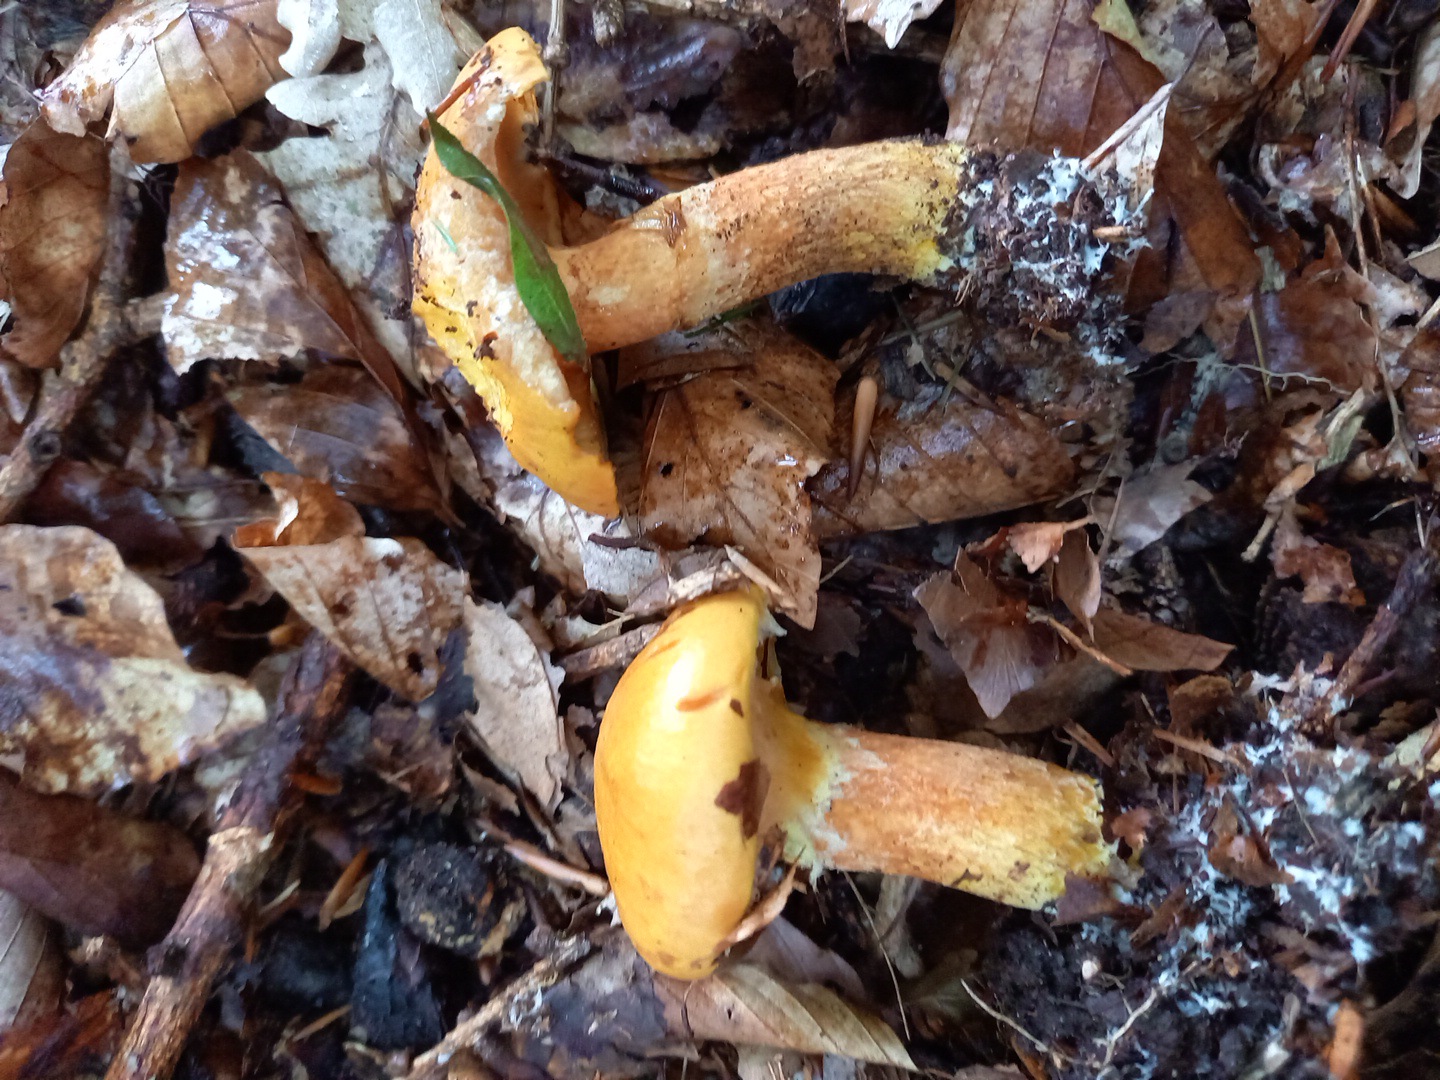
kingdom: Fungi
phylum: Basidiomycota
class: Agaricomycetes
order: Boletales
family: Suillaceae
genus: Suillus
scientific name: Suillus grevillei
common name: lærke-slimrørhat
